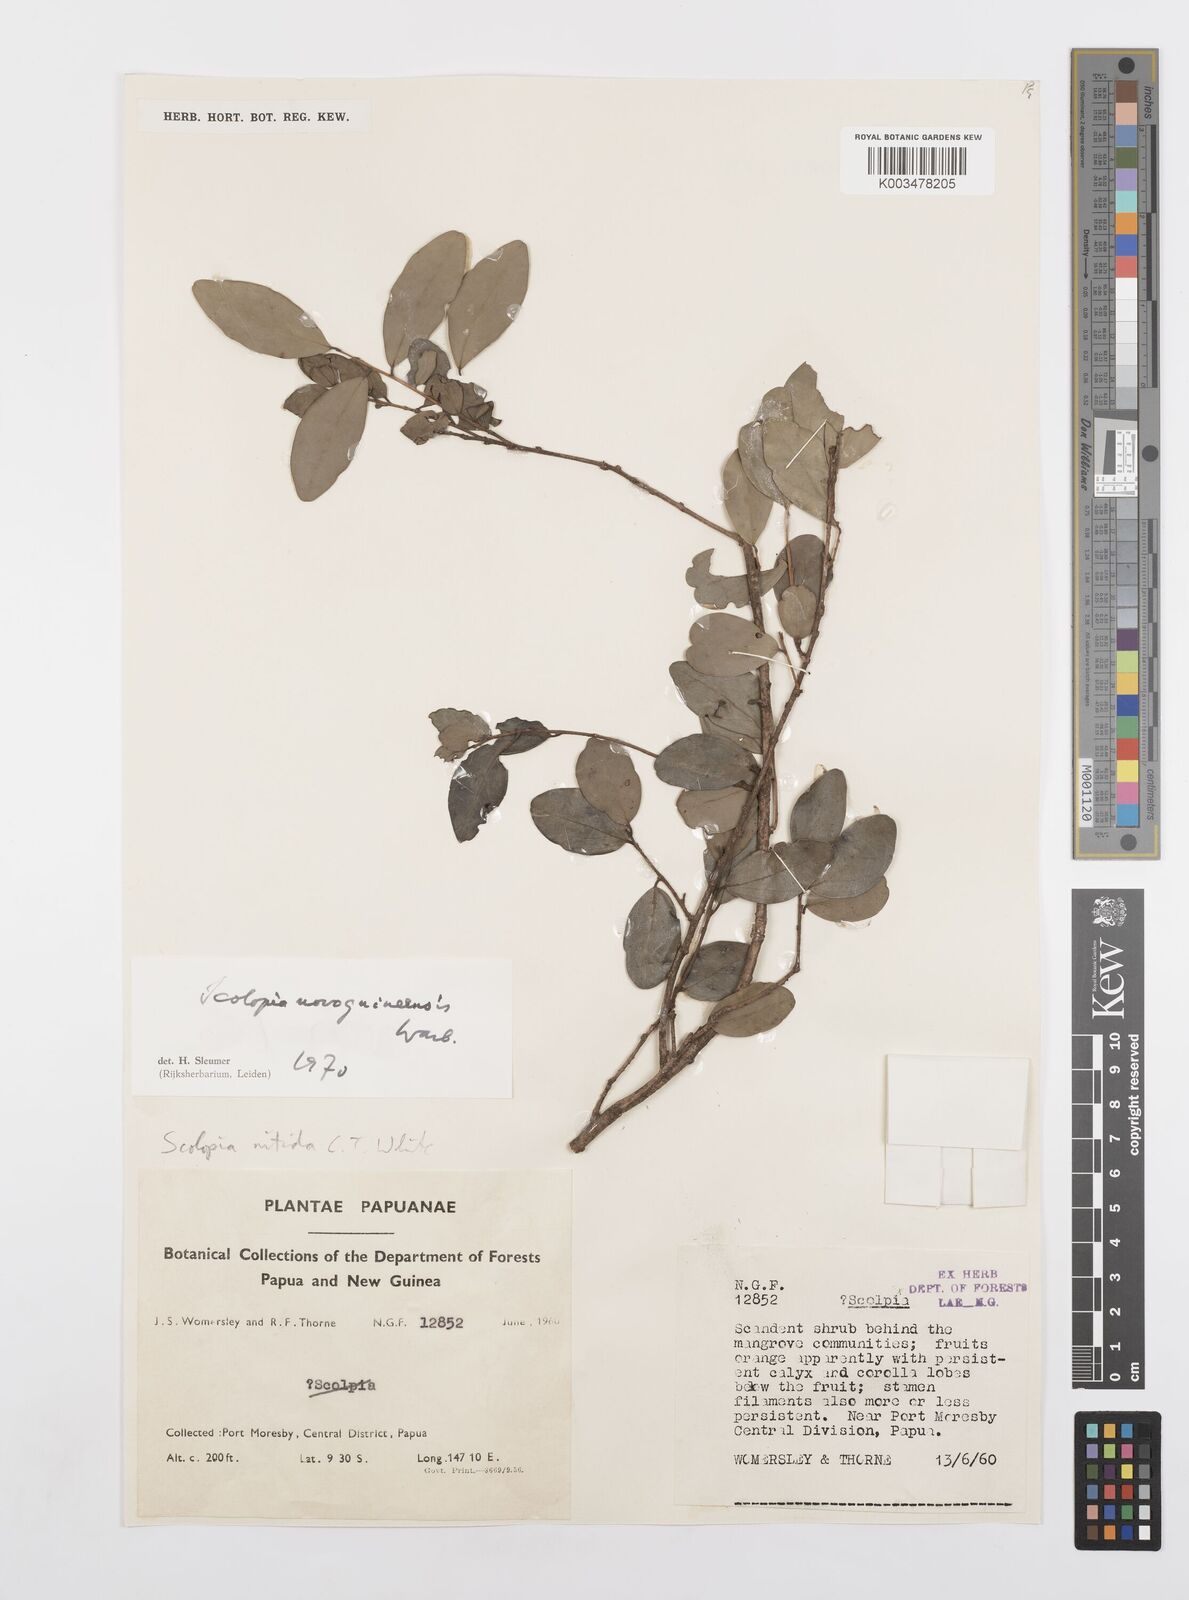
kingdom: Plantae
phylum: Tracheophyta
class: Magnoliopsida
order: Malpighiales
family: Salicaceae
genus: Scolopia
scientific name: Scolopia nitida
